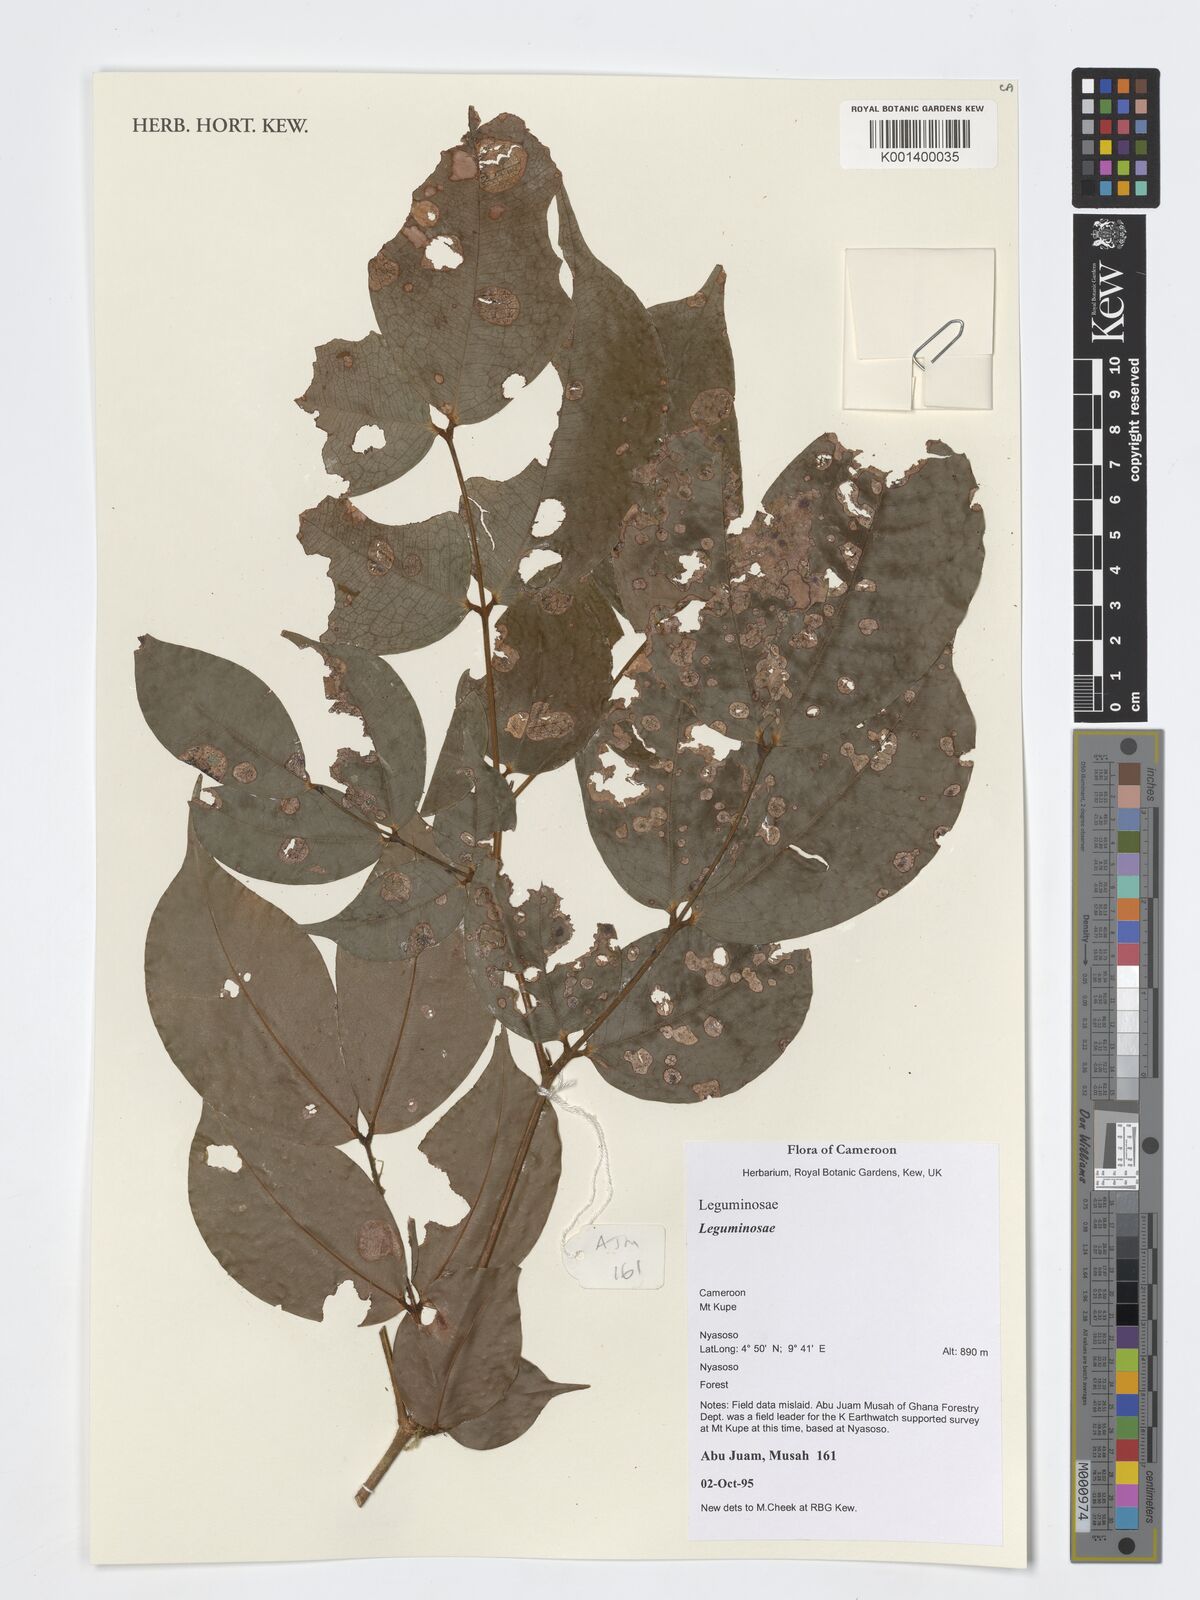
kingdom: Plantae
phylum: Tracheophyta
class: Magnoliopsida
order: Fabales
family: Fabaceae
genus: Loesenera
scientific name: Loesenera talbotii
